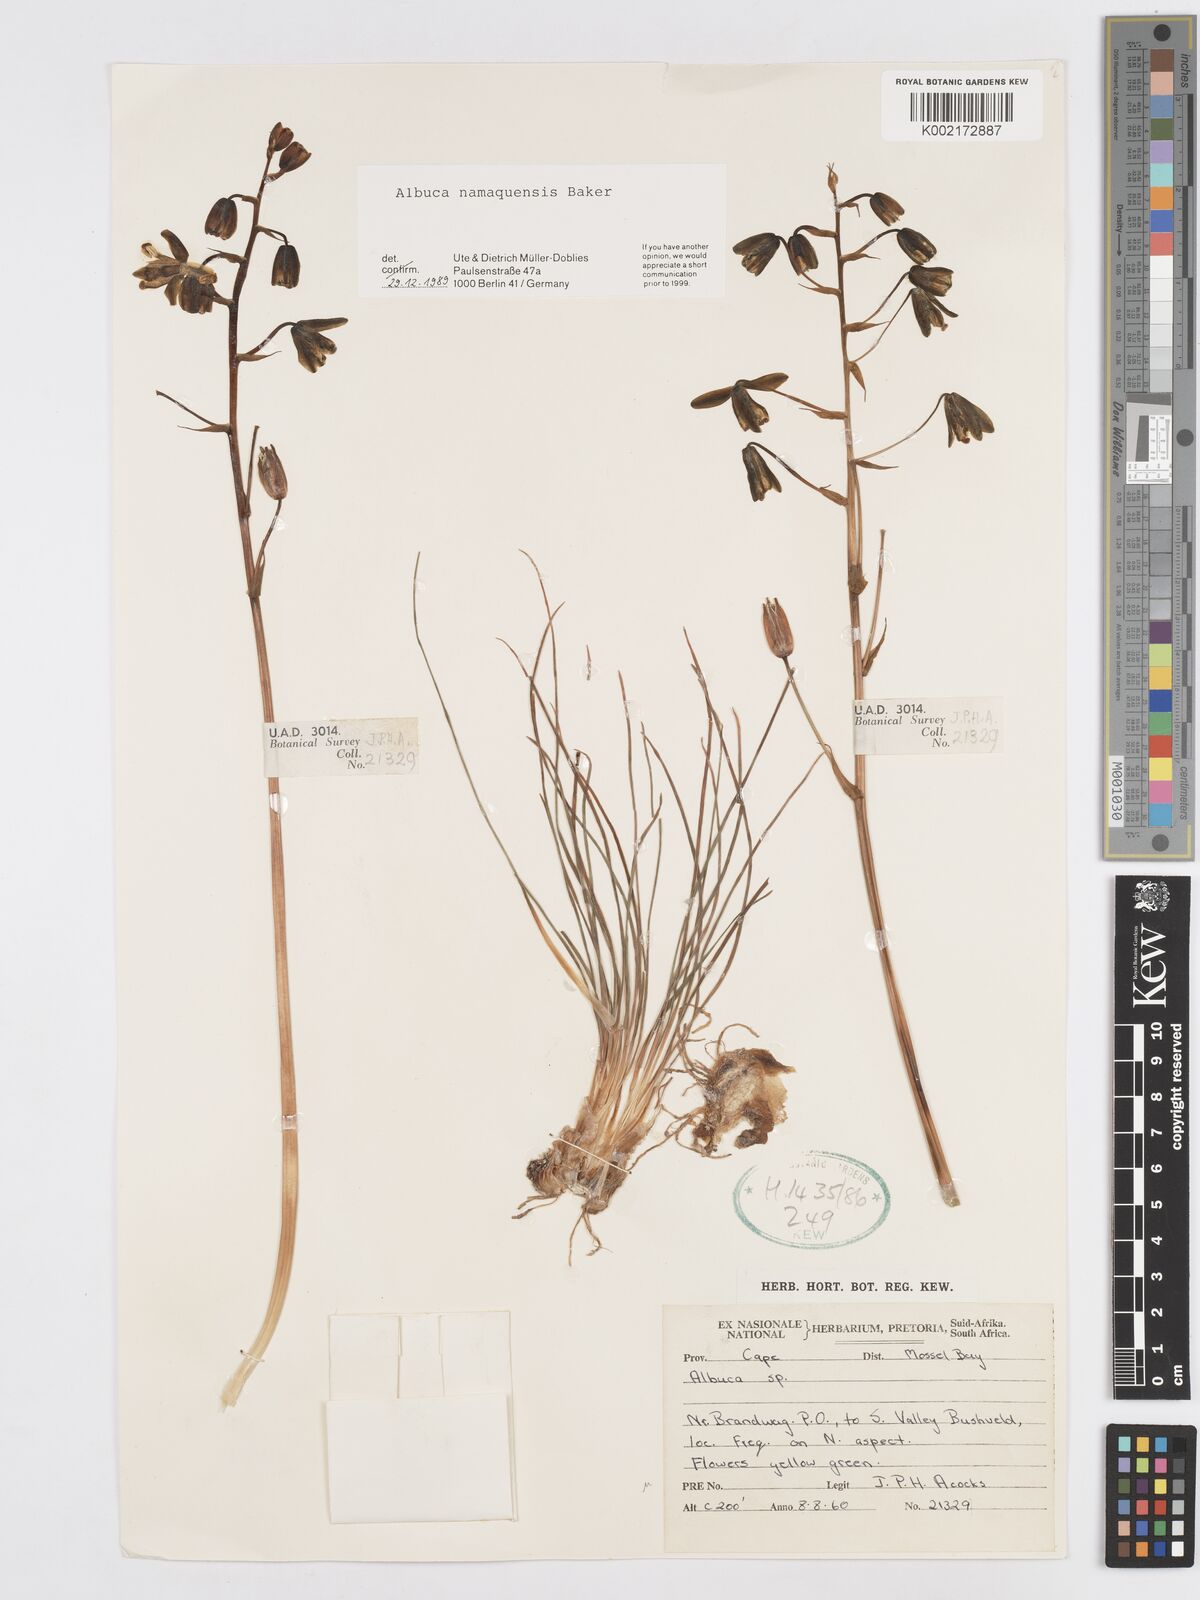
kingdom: Plantae
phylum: Tracheophyta
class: Liliopsida
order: Asparagales
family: Asparagaceae
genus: Albuca
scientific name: Albuca namaquensis
